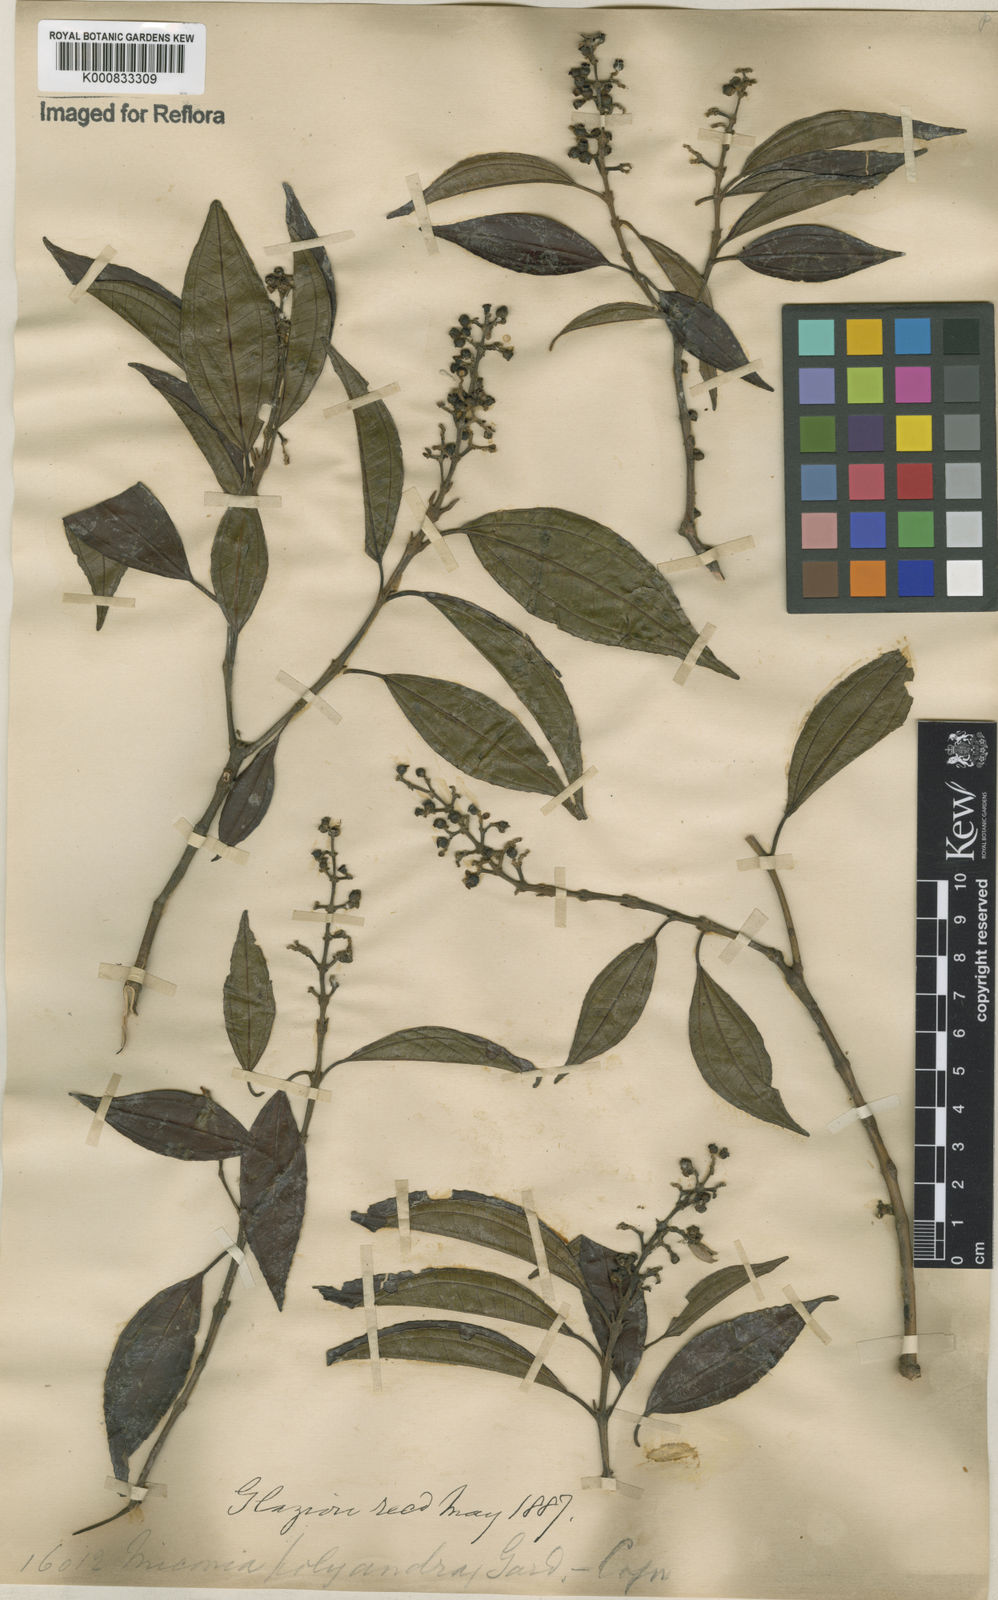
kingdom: Plantae
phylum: Tracheophyta
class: Magnoliopsida
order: Myrtales
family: Melastomataceae
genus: Miconia
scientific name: Miconia polyandra
